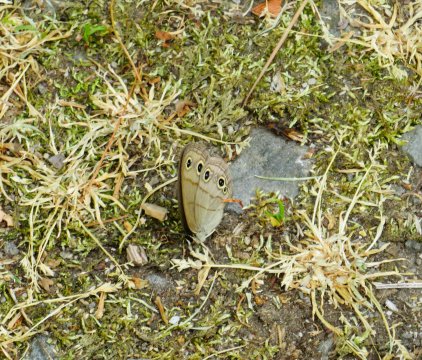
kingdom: Animalia
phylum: Arthropoda
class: Insecta
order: Lepidoptera
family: Nymphalidae
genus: Euptychia
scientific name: Euptychia cymela
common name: Little Wood Satyr
